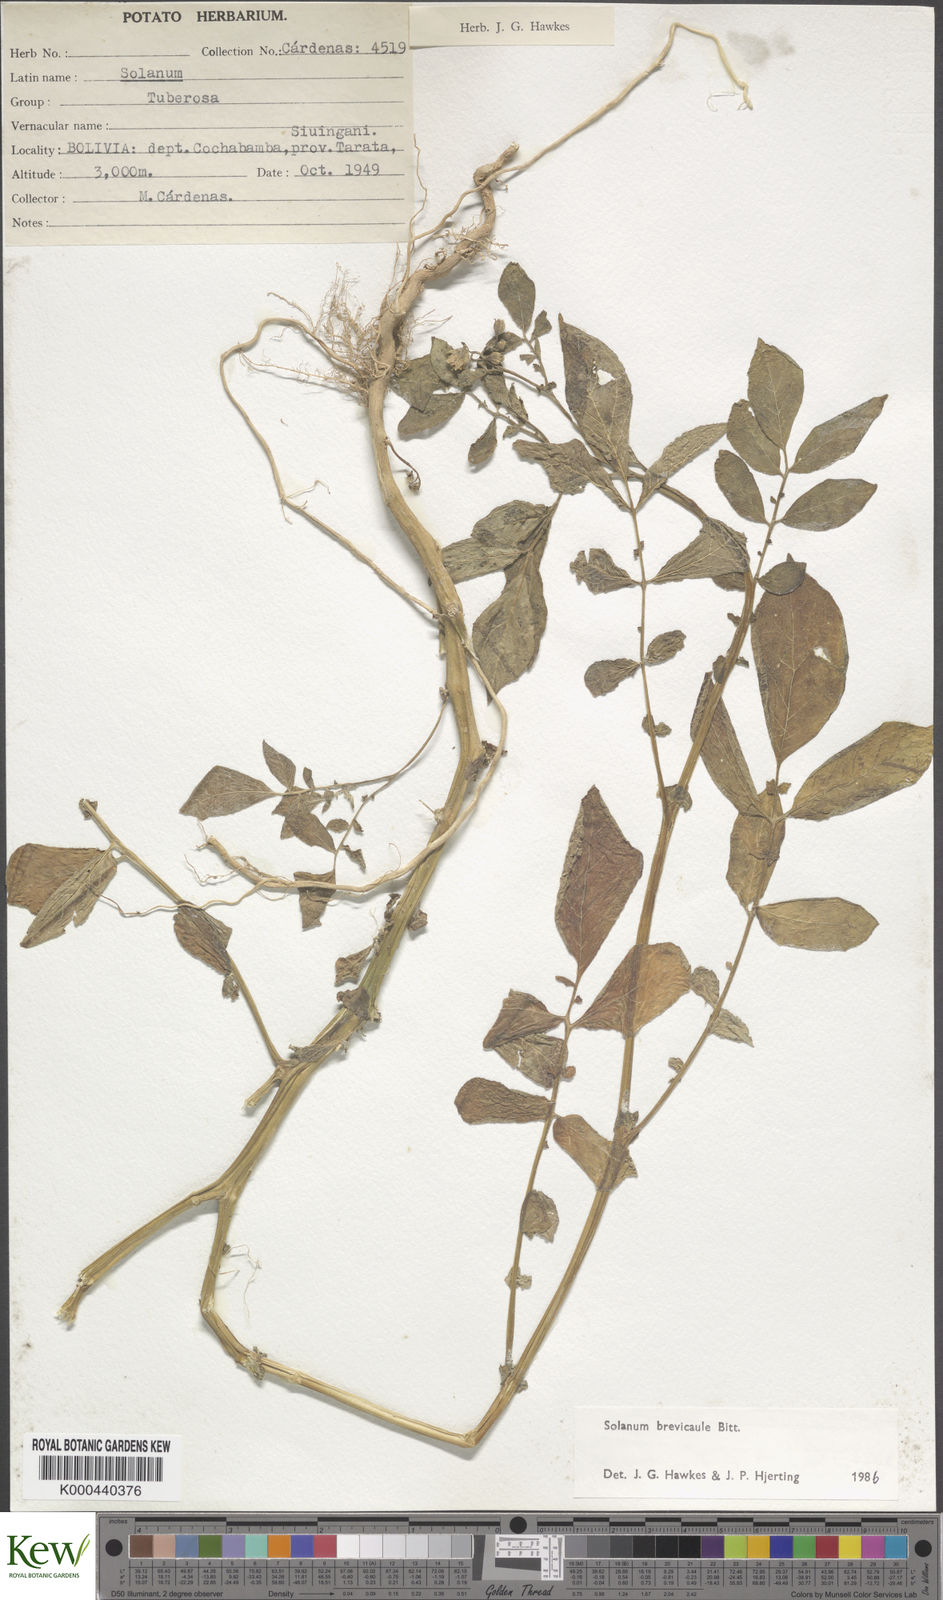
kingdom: Plantae
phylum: Tracheophyta
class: Magnoliopsida
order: Solanales
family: Solanaceae
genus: Solanum
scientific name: Solanum brevicaule
